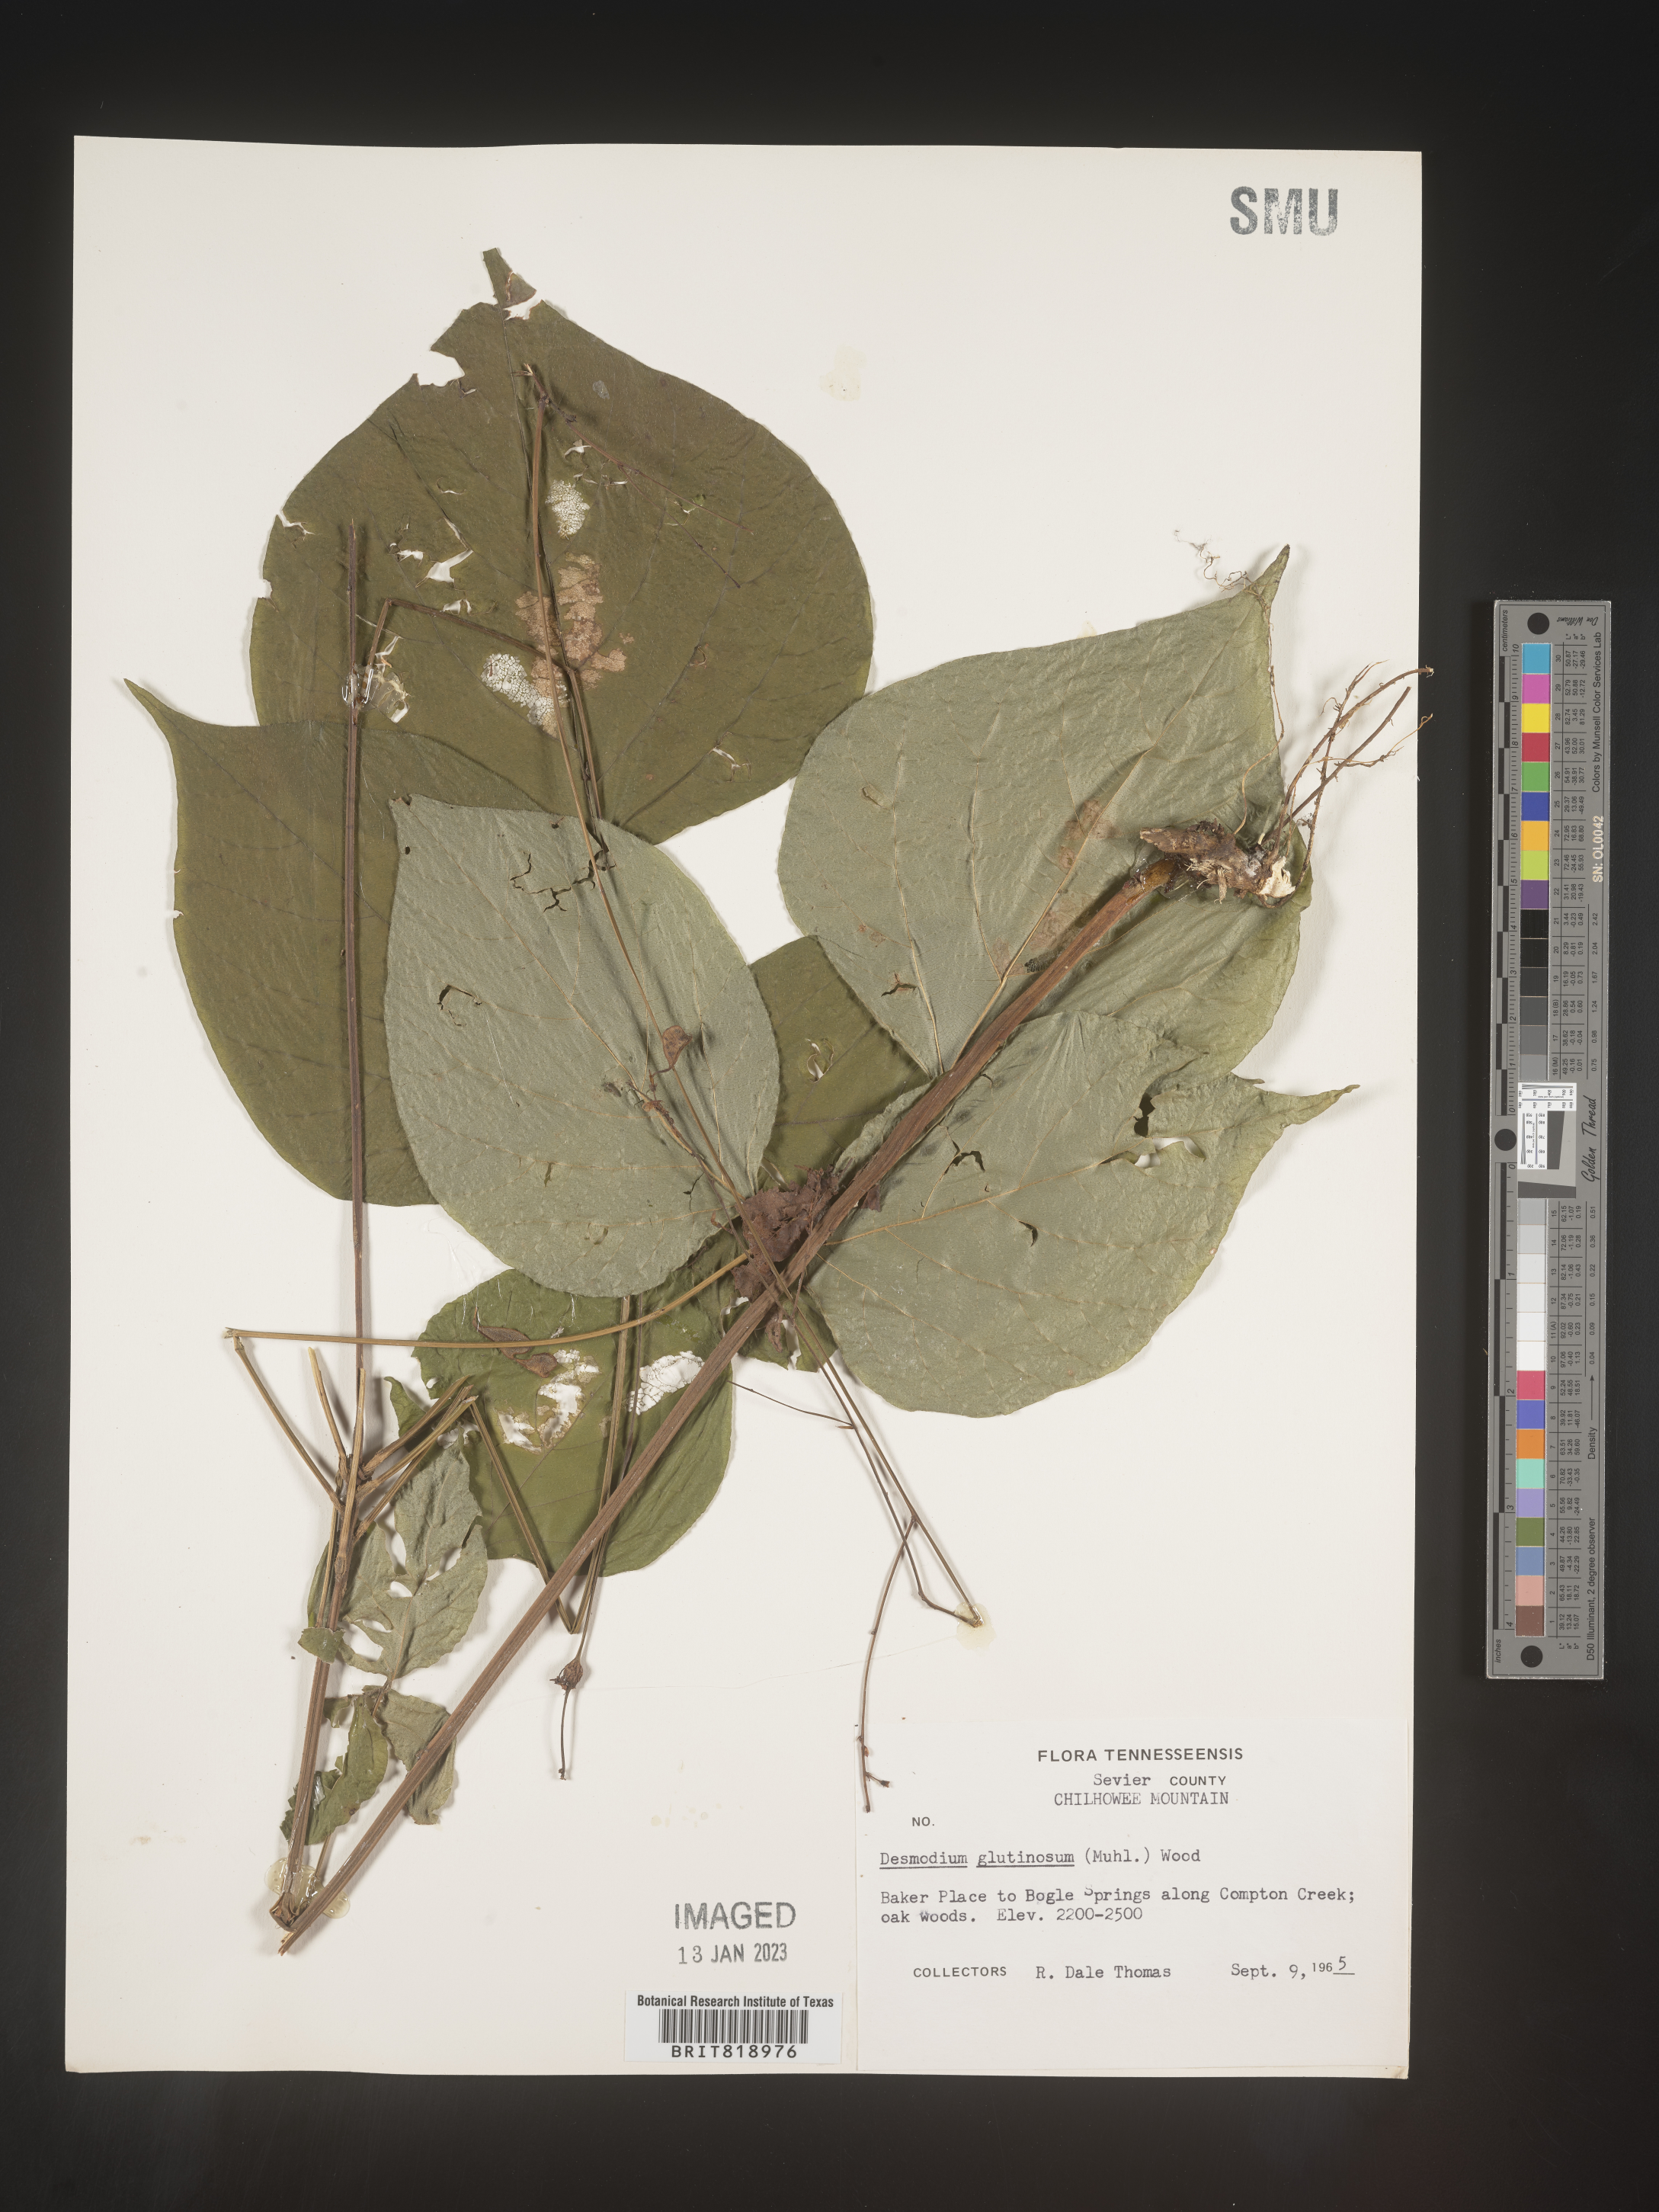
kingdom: Plantae
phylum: Tracheophyta
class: Magnoliopsida
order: Fabales
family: Fabaceae
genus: Hylodesmum
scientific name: Hylodesmum glutinosum
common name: Clustered-leaved tick-trefoil
